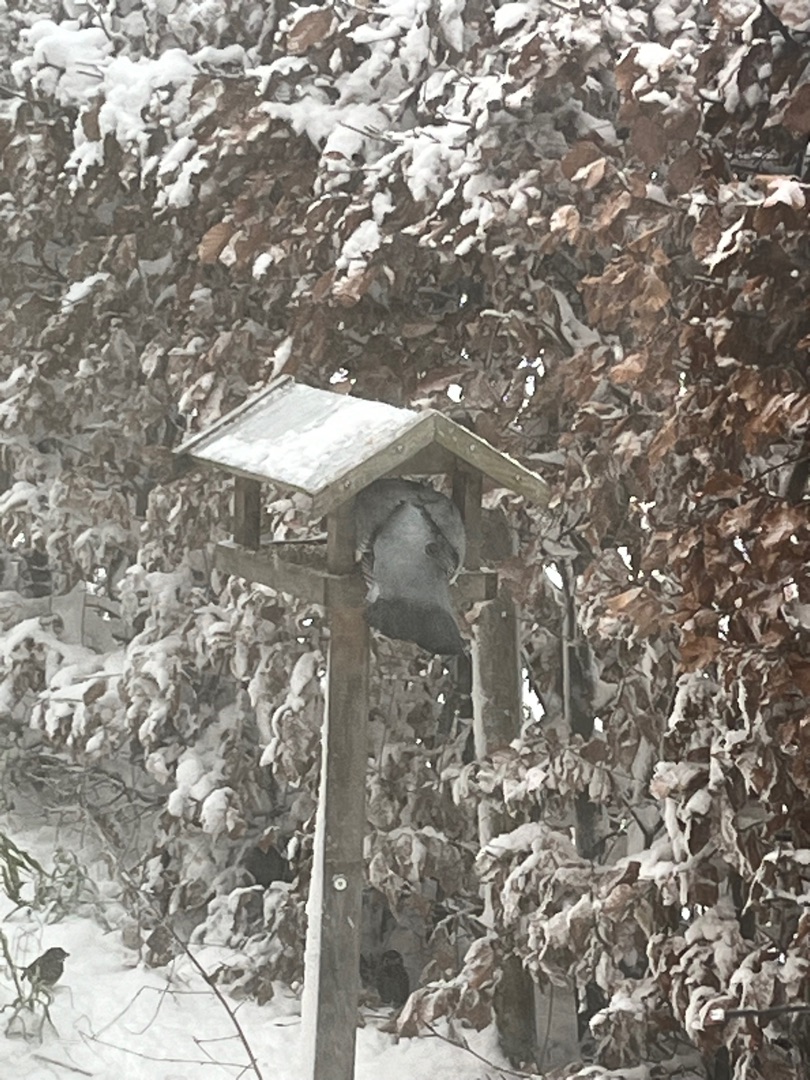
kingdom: Animalia
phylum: Chordata
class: Aves
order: Columbiformes
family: Columbidae
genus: Columba
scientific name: Columba palumbus
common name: Ringdue
